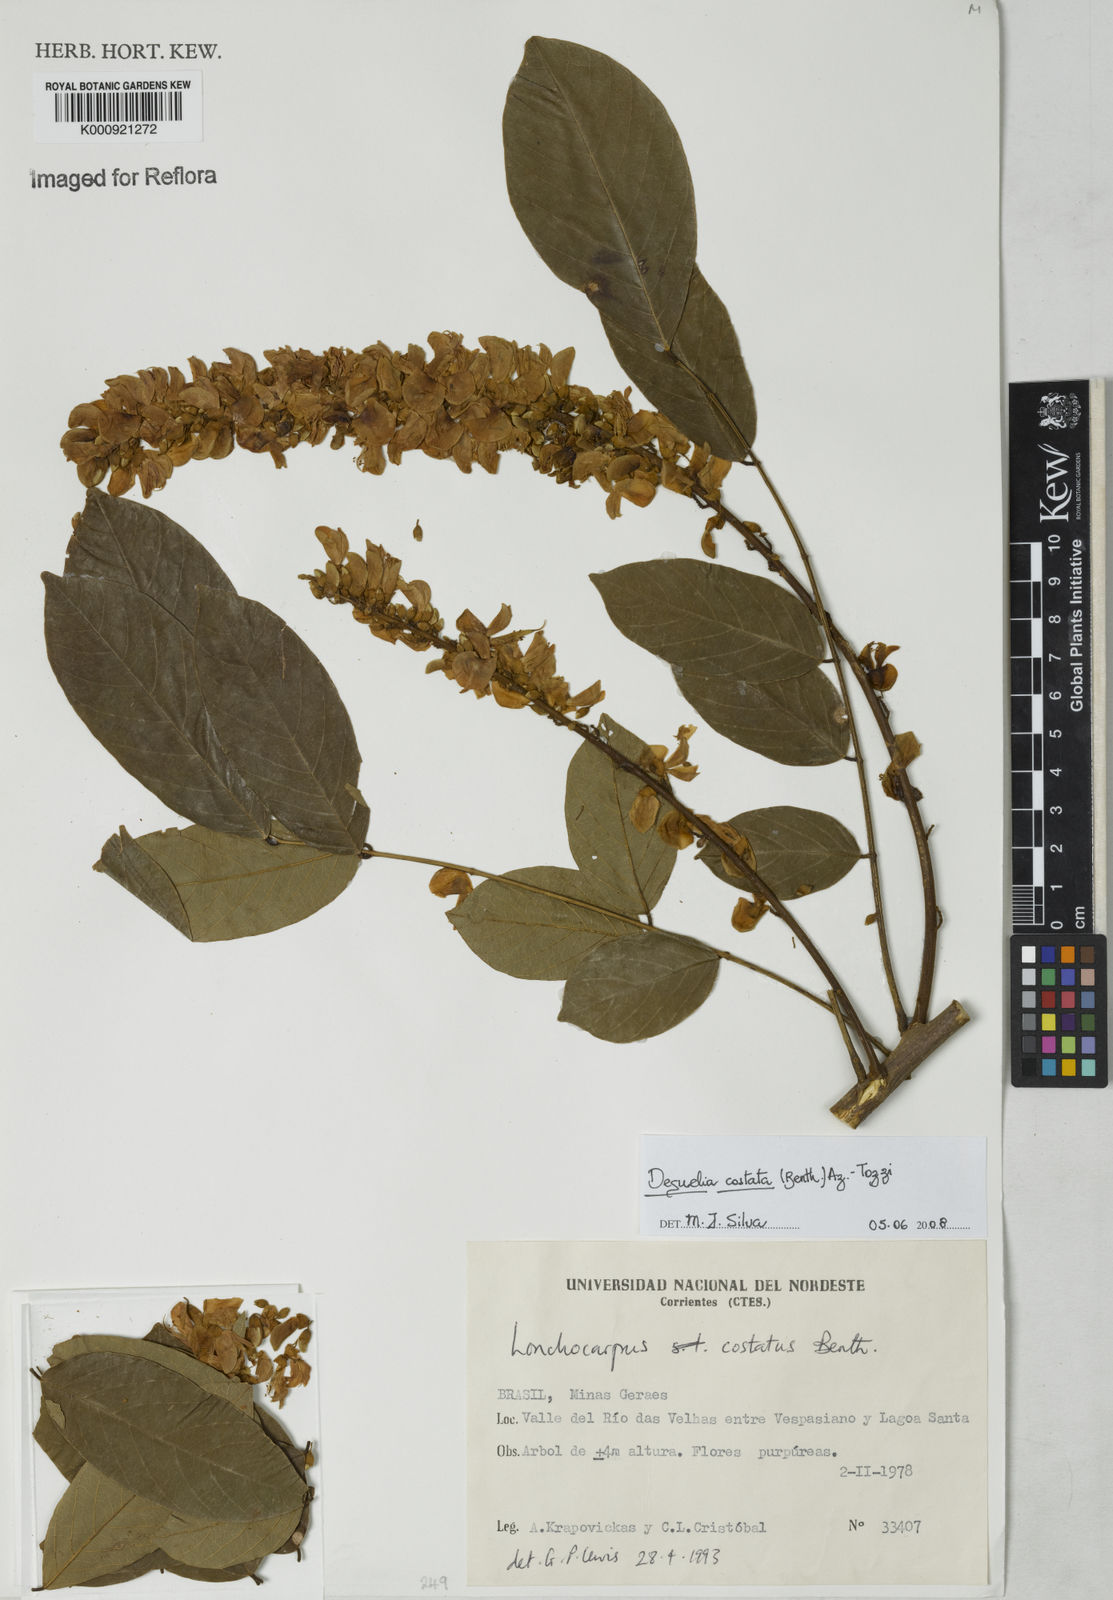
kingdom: Plantae
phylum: Tracheophyta
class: Magnoliopsida
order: Fabales
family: Fabaceae
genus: Deguelia
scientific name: Deguelia costata
